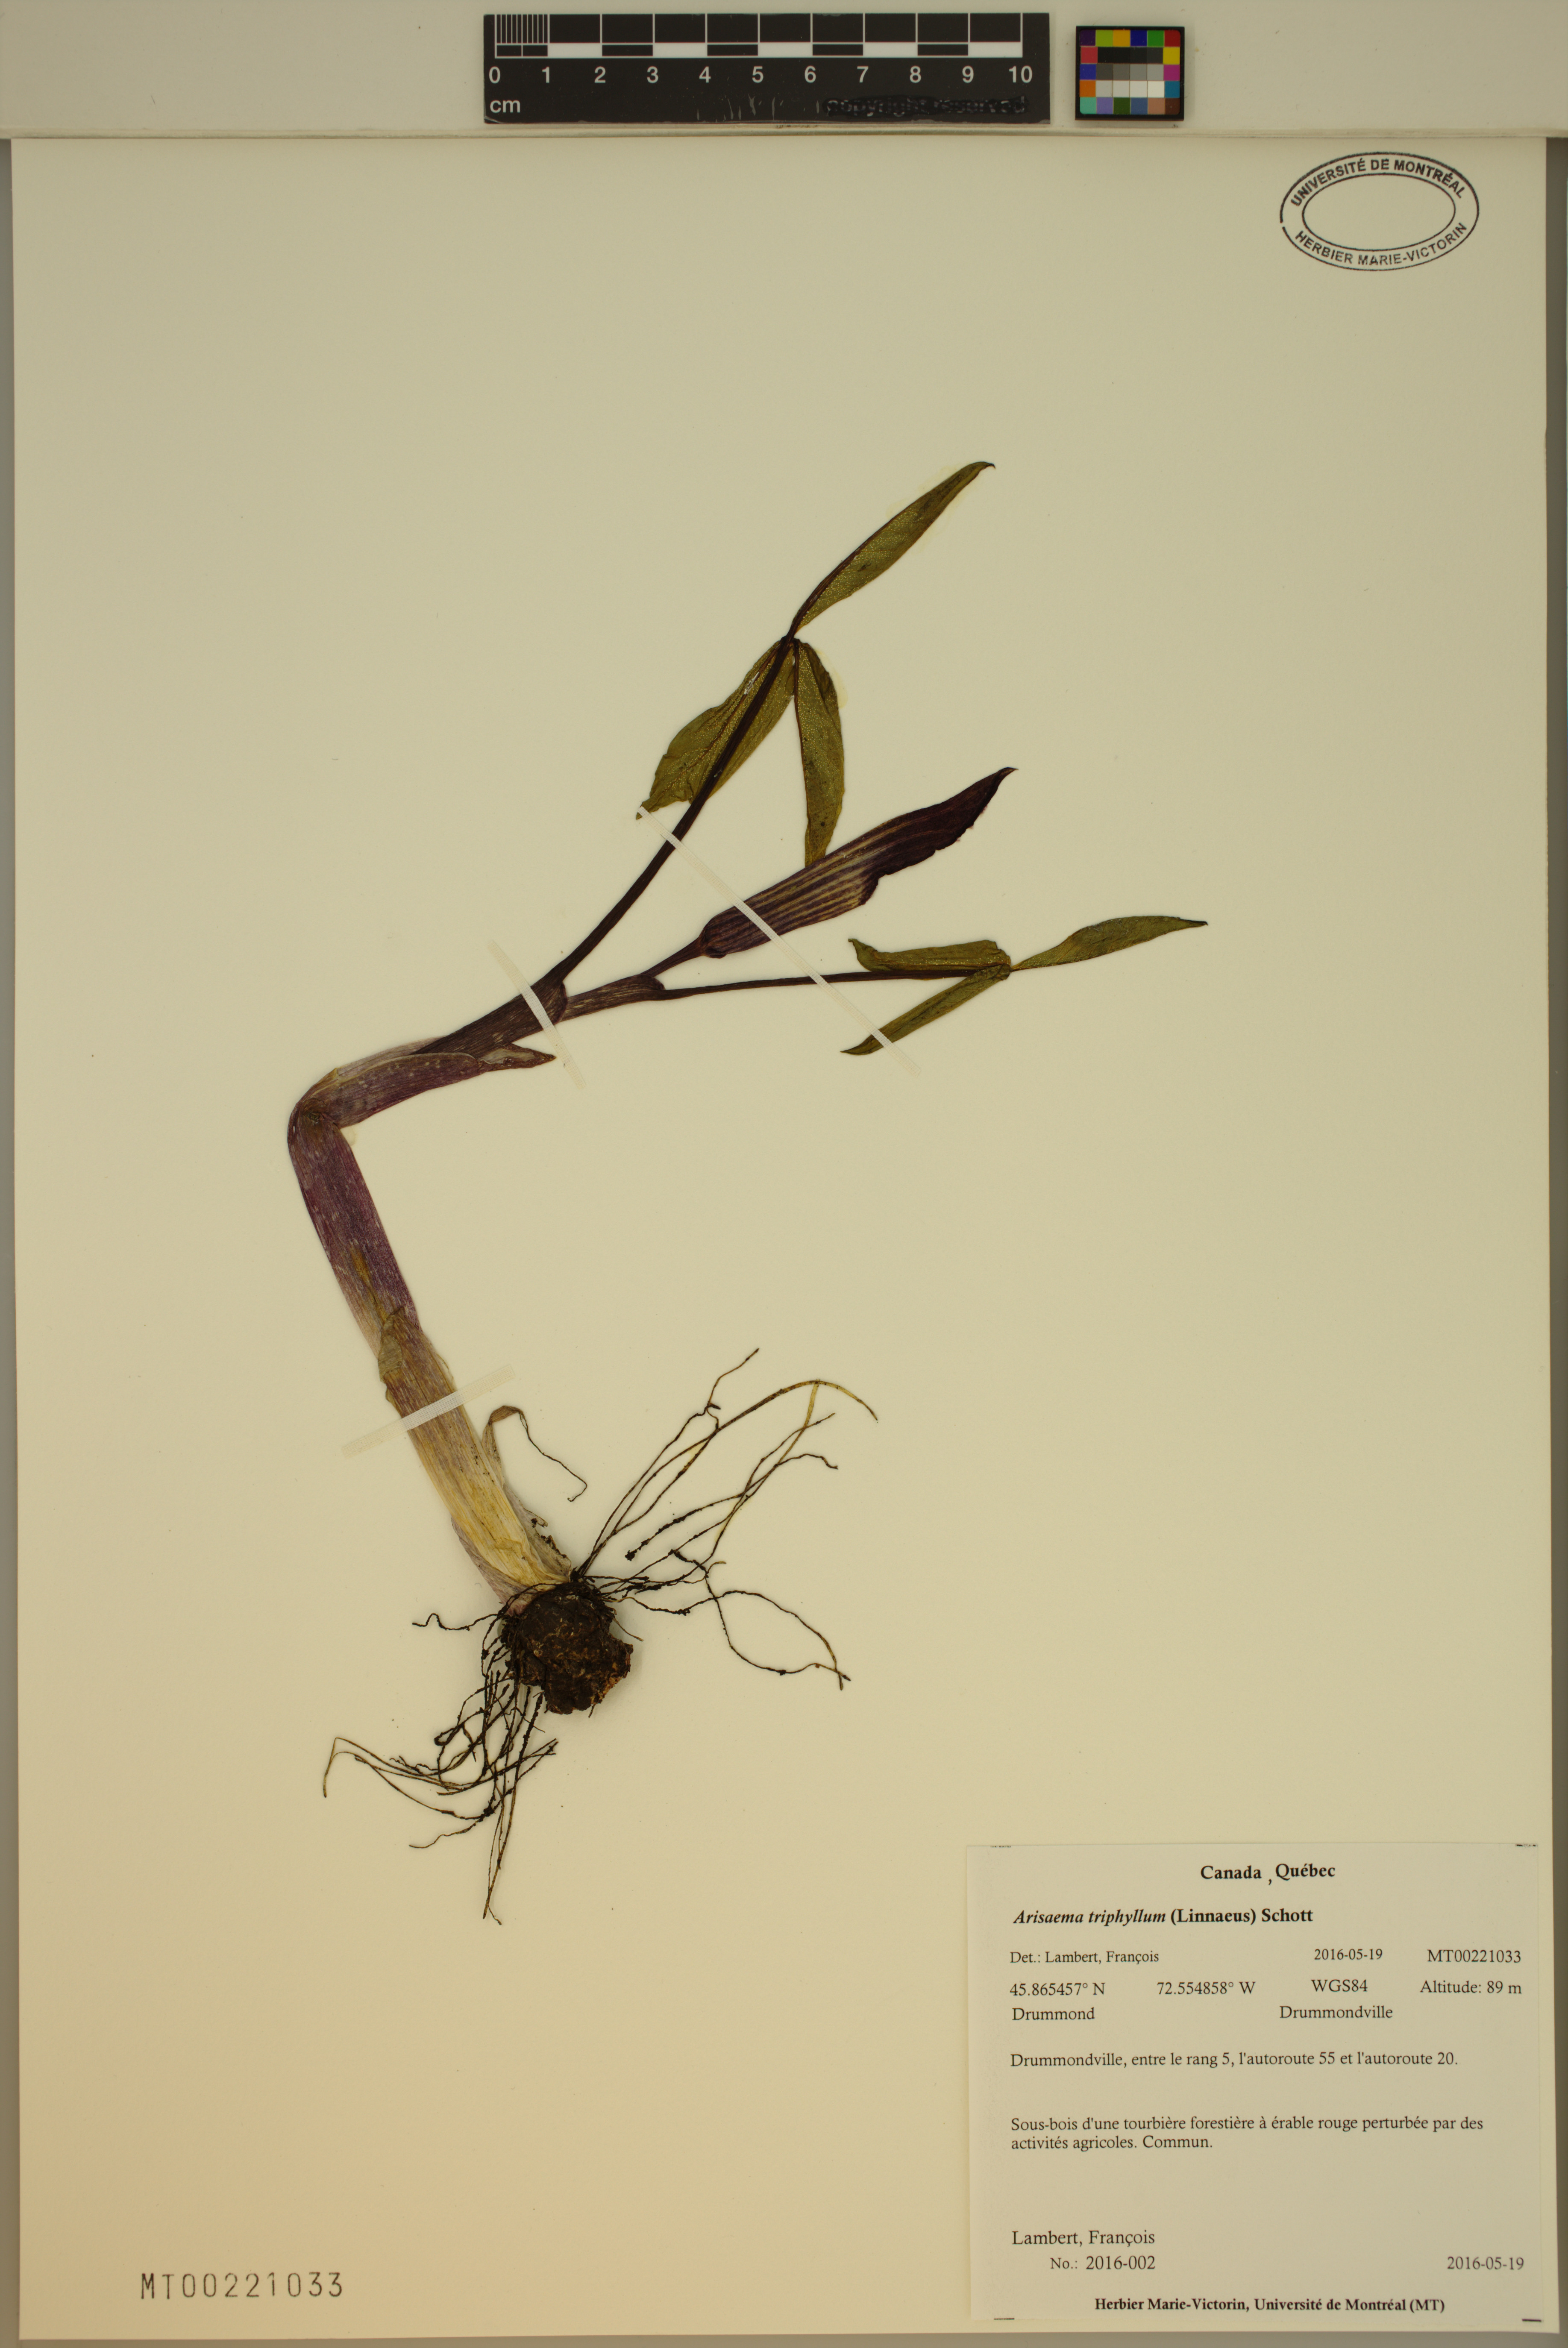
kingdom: Plantae
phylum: Tracheophyta
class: Liliopsida
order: Alismatales
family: Araceae
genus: Arisaema
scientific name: Arisaema triphyllum
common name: Jack-in-the-pulpit
